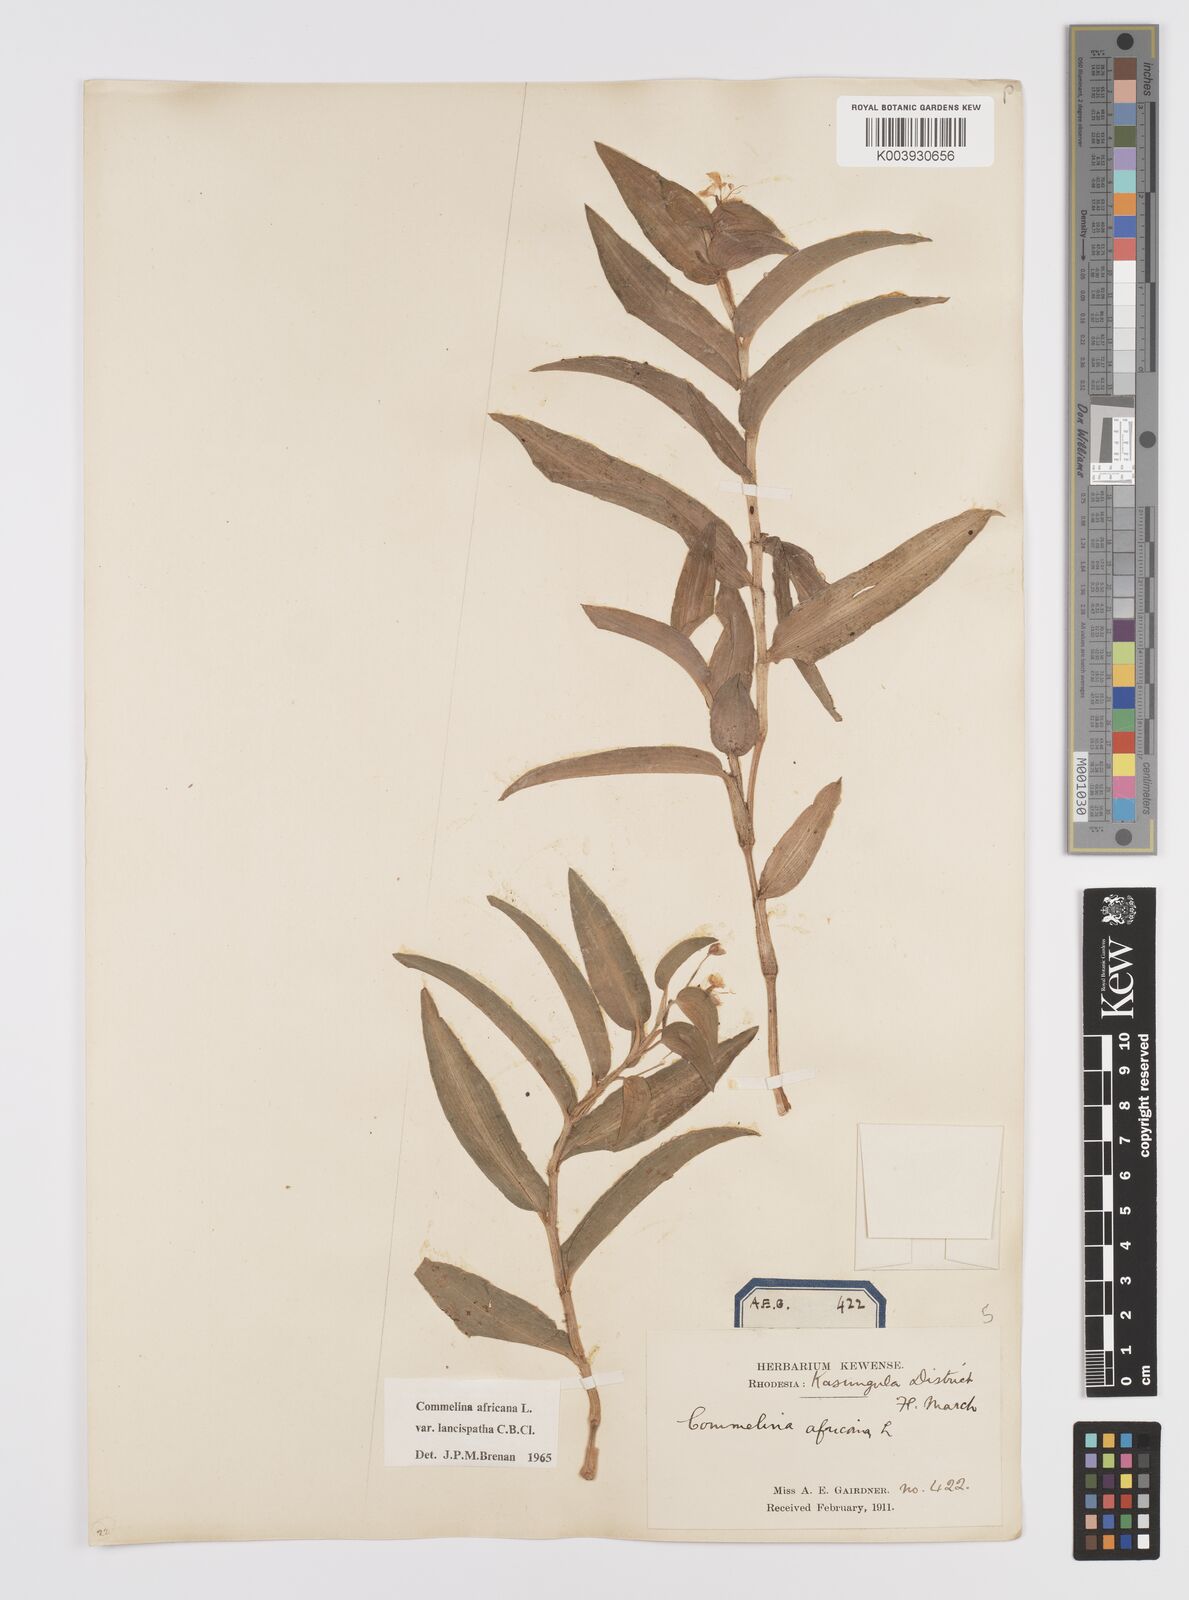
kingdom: Plantae
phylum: Tracheophyta
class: Liliopsida
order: Commelinales
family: Commelinaceae
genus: Commelina
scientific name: Commelina africana
